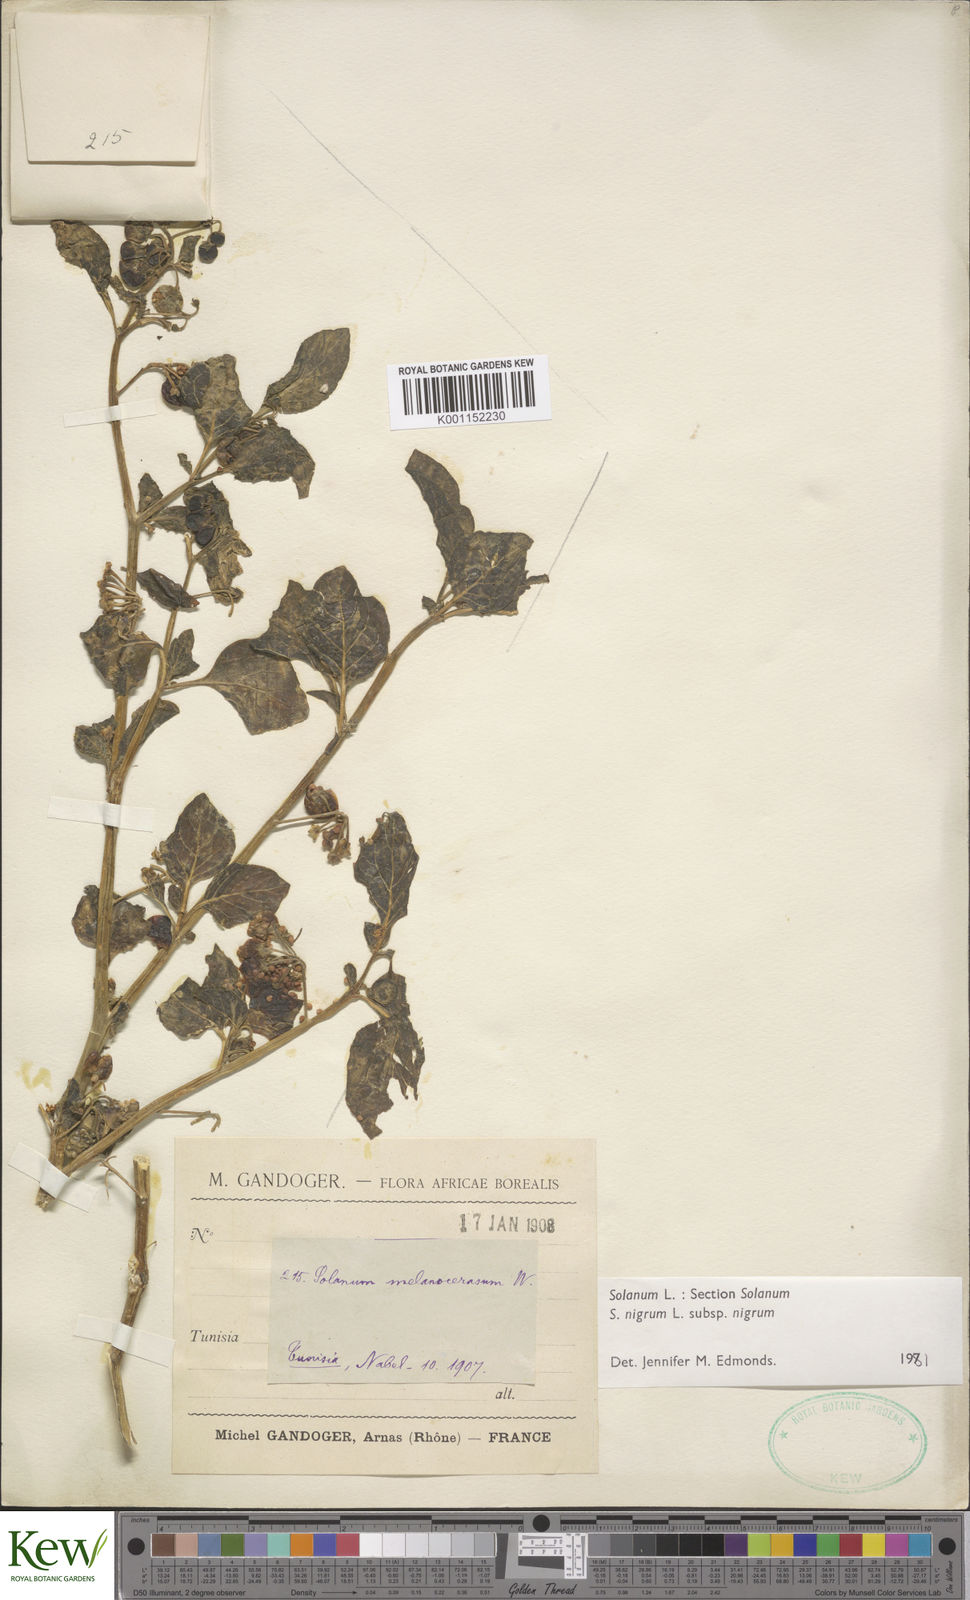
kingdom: Plantae
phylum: Tracheophyta
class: Magnoliopsida
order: Solanales
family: Solanaceae
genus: Solanum
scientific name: Solanum nigrum
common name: Black nightshade
